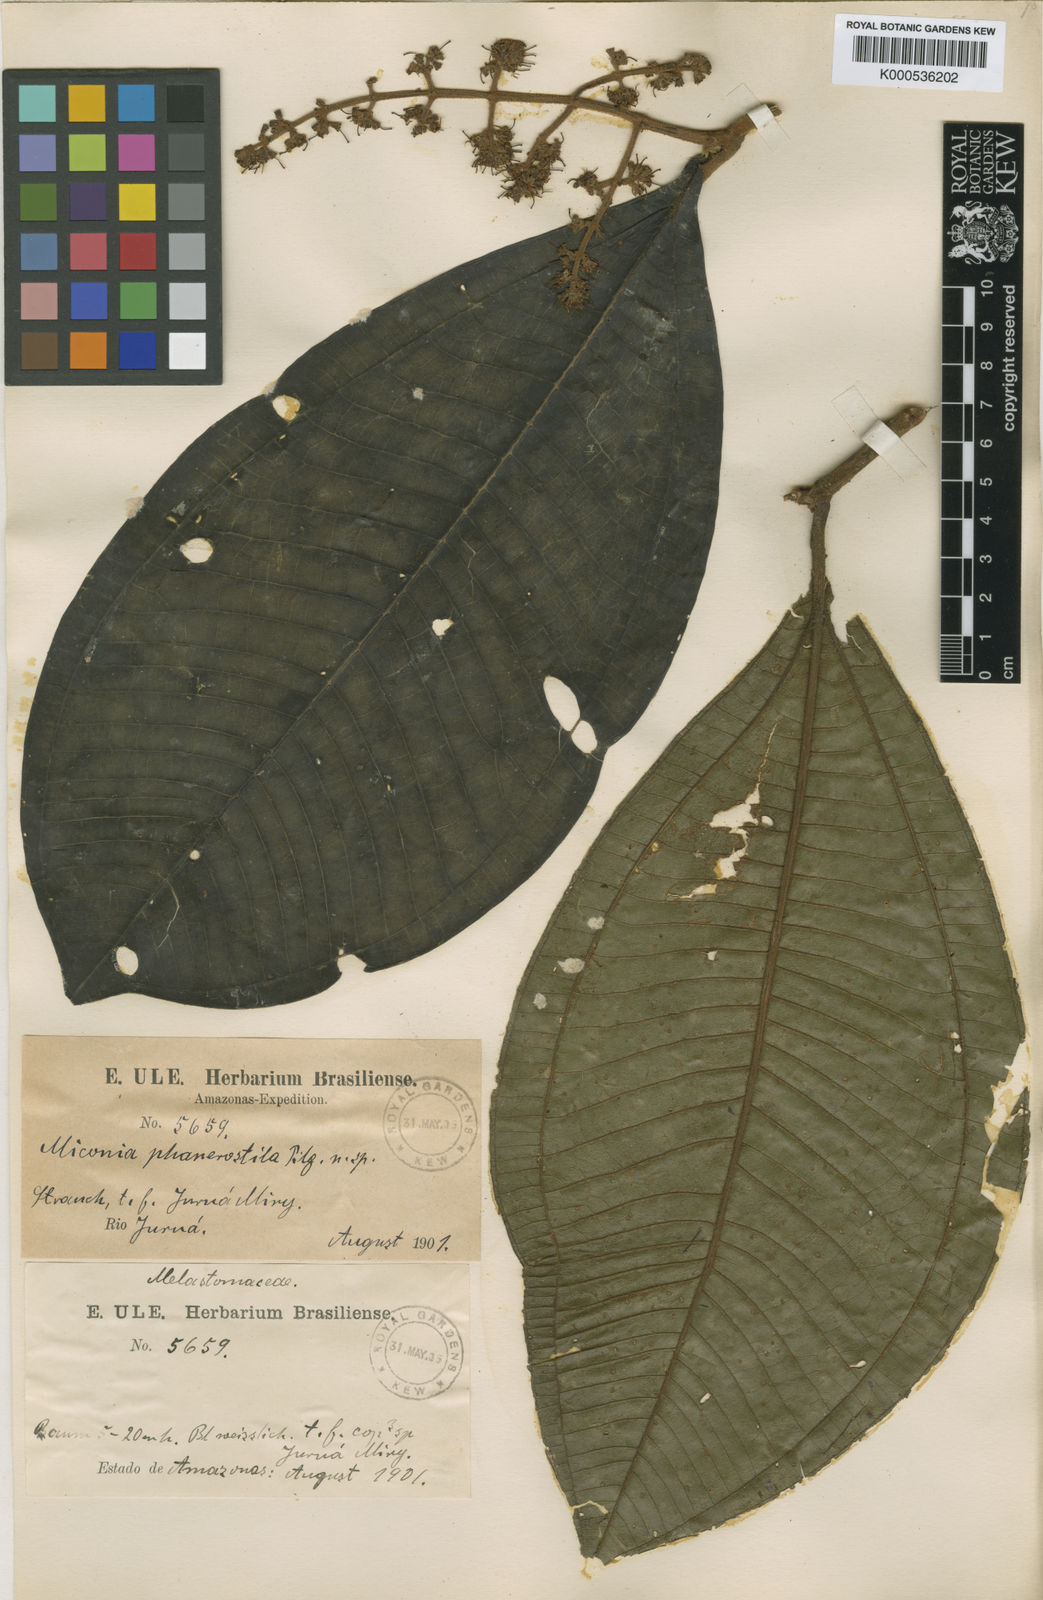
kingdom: Plantae
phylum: Tracheophyta
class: Magnoliopsida
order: Myrtales
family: Melastomataceae
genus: Miconia
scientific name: Miconia phanerostila
